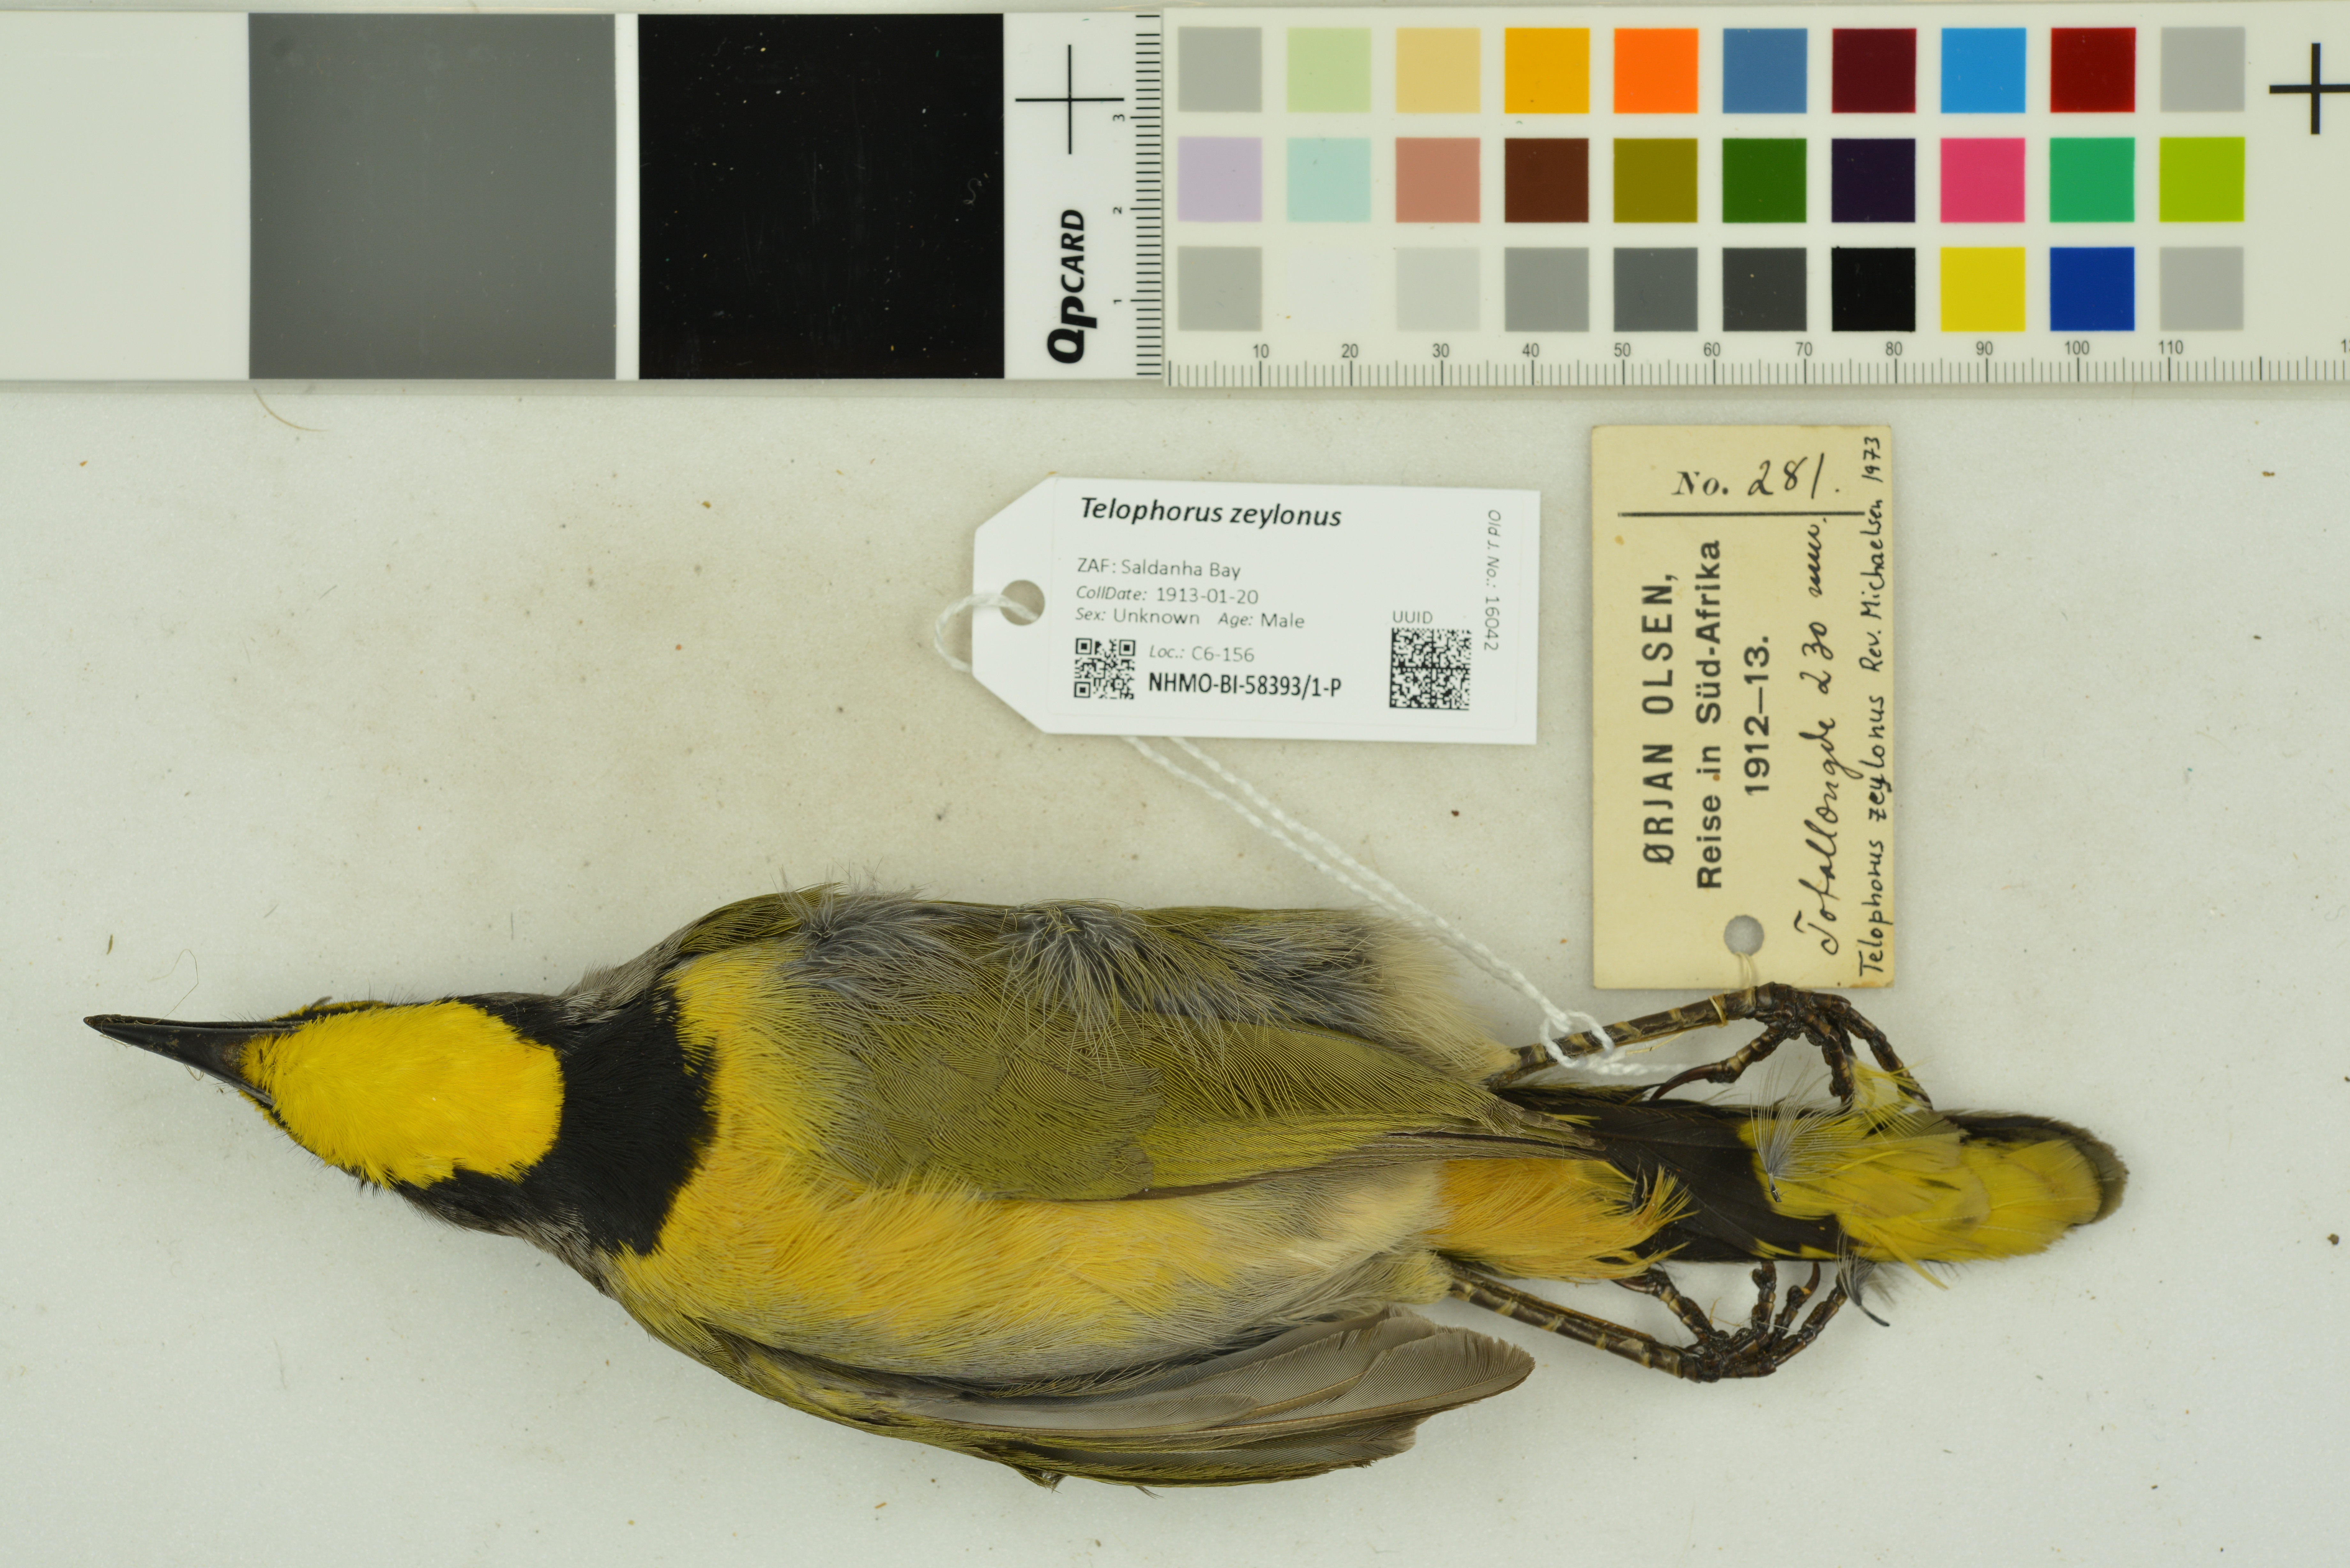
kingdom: Animalia
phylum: Chordata
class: Aves
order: Passeriformes
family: Malaconotidae
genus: Telophorus
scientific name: Telophorus zeylonus
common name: Bokmakierie
